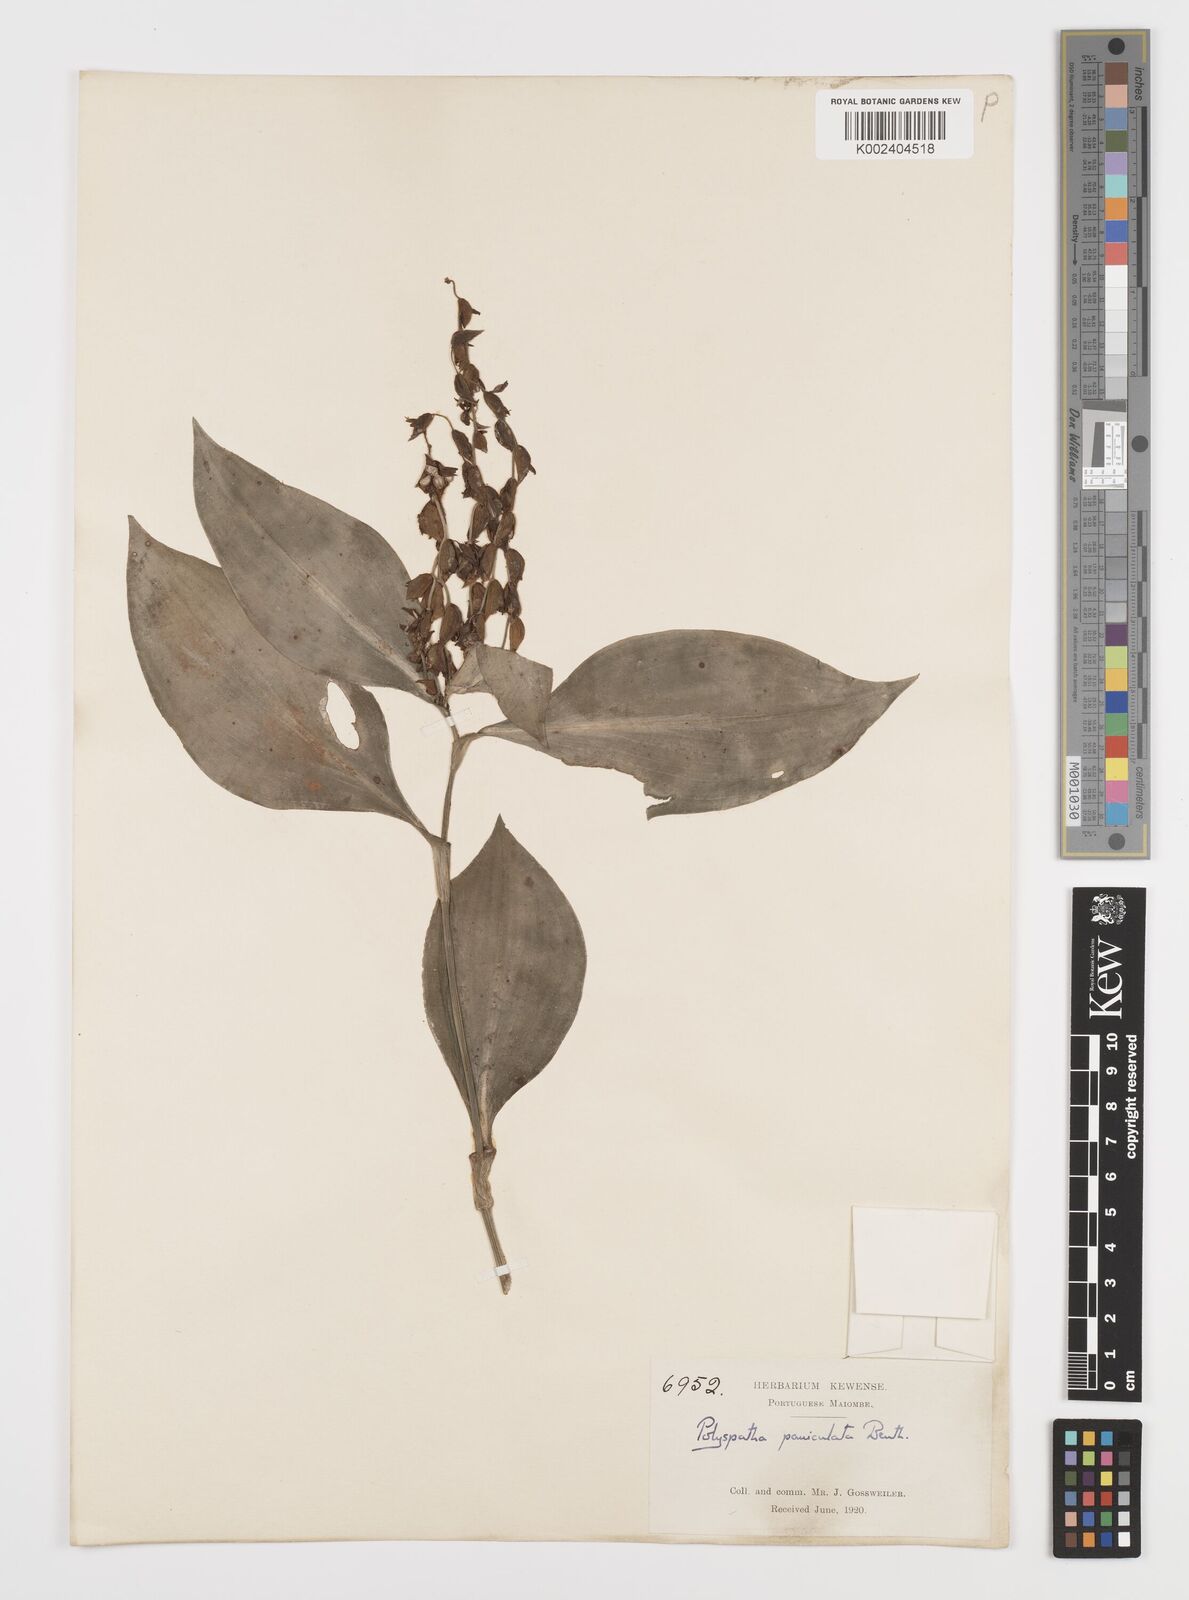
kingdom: Plantae
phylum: Tracheophyta
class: Liliopsida
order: Commelinales
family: Commelinaceae
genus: Polyspatha
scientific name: Polyspatha paniculata
